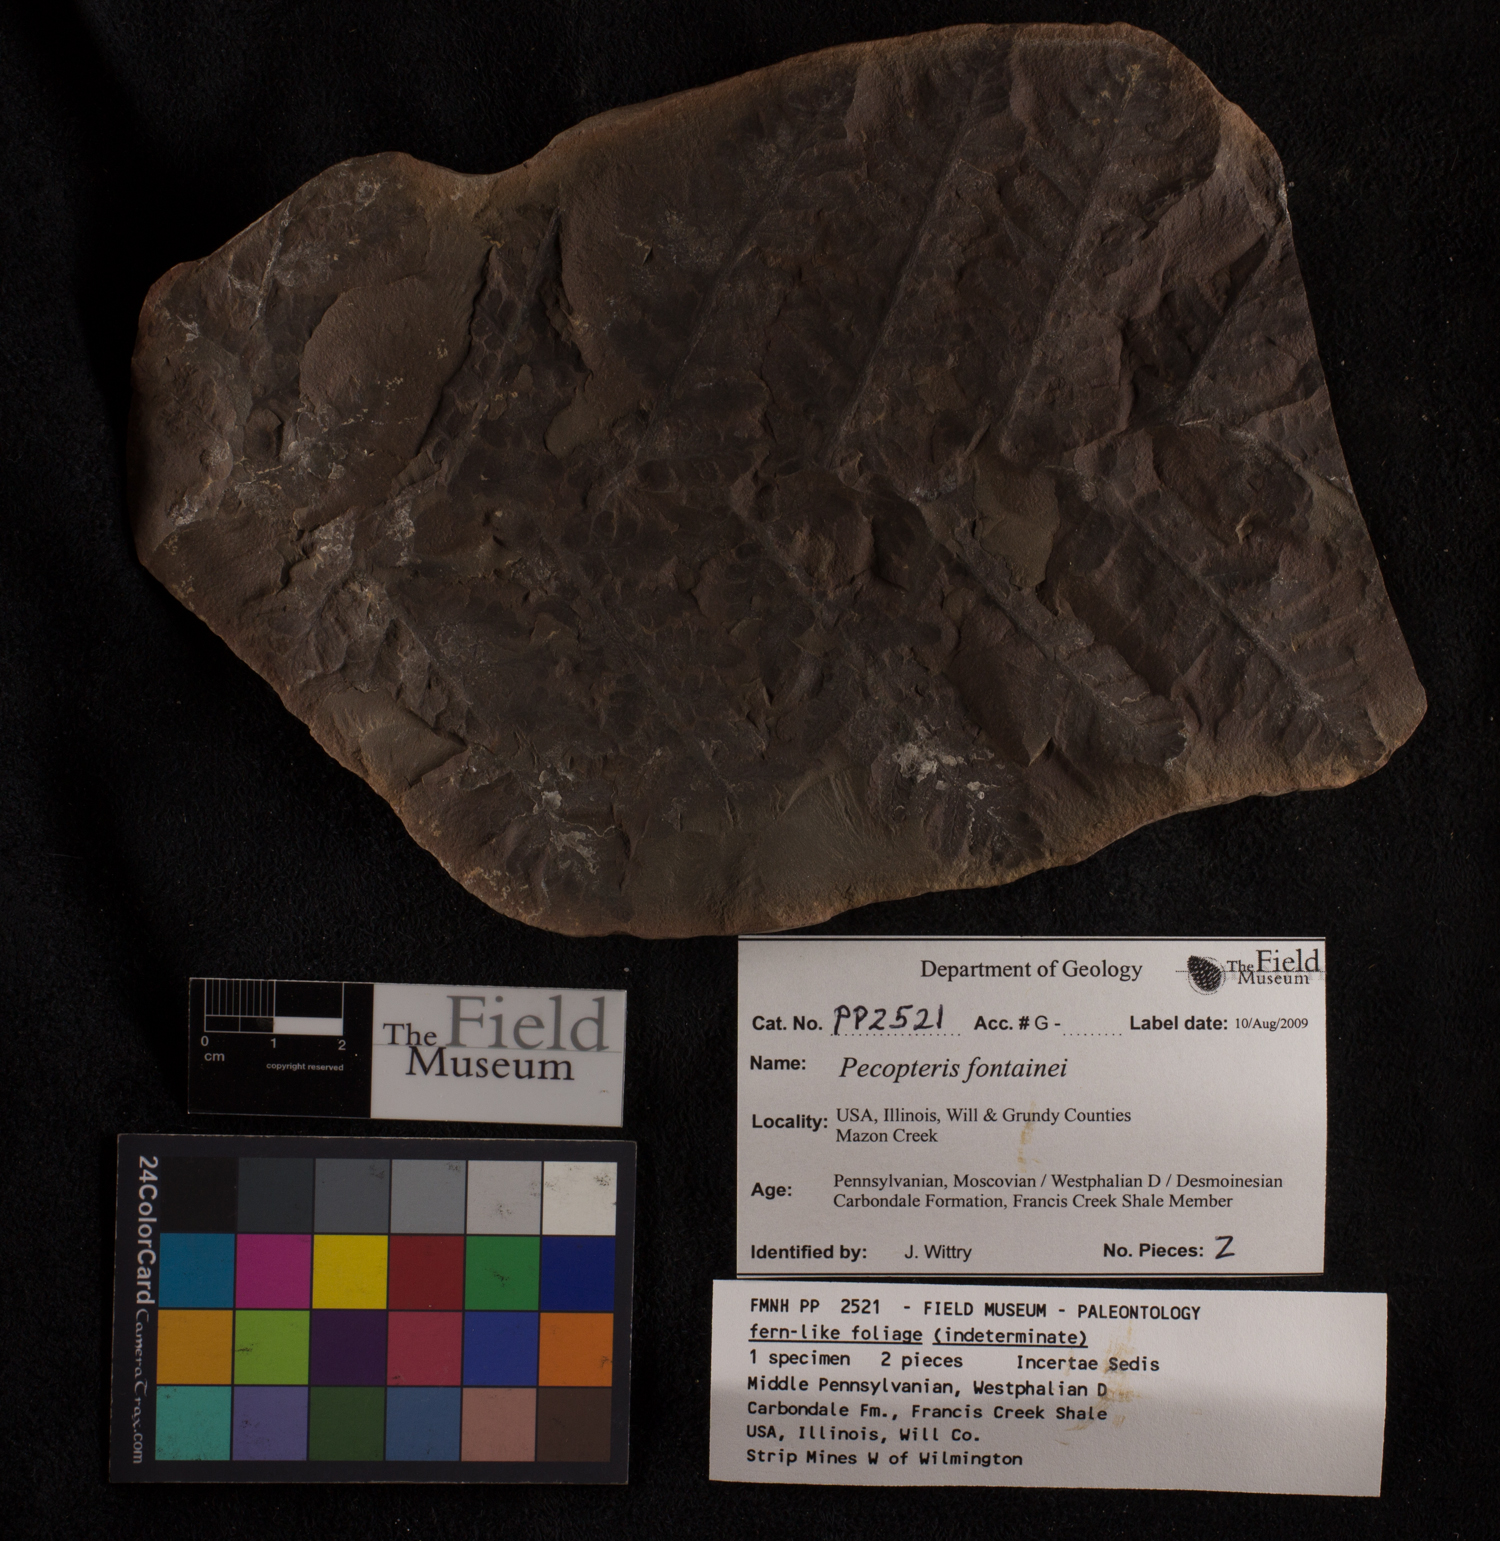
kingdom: Plantae
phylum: Tracheophyta
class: Polypodiopsida
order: Marattiales
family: Asterothecaceae
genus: Pecopteris
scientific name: Pecopteris
